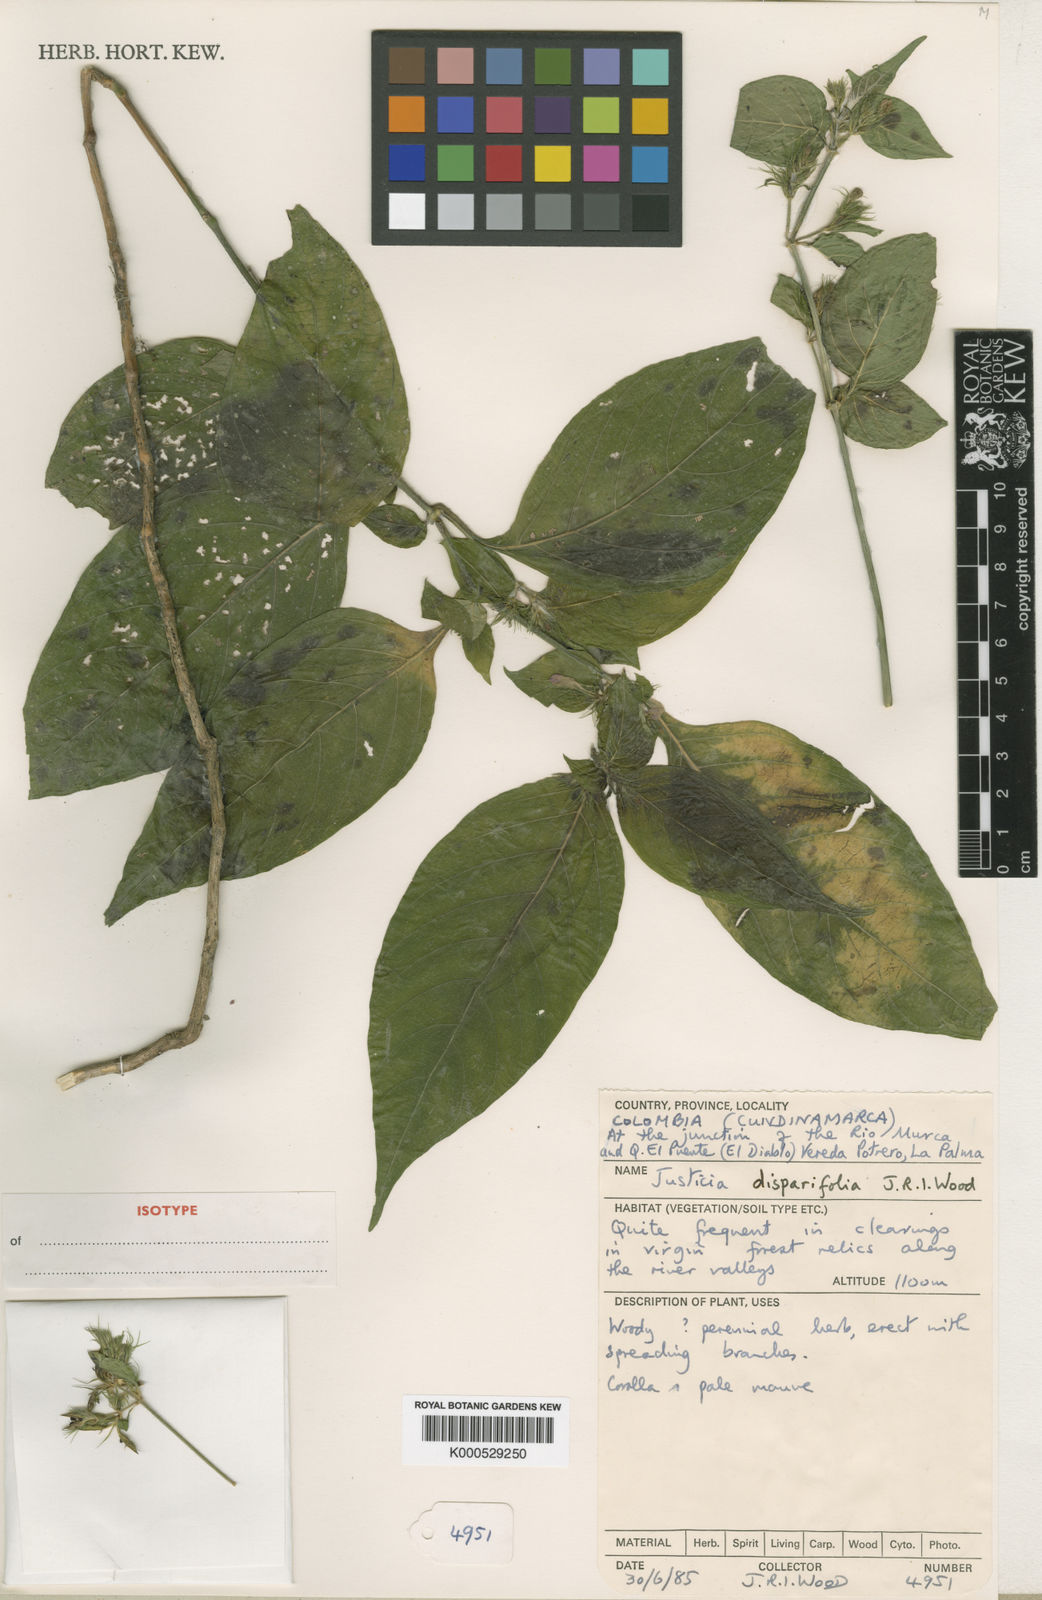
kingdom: Plantae
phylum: Tracheophyta
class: Magnoliopsida
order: Lamiales
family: Acanthaceae
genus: Justicia
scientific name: Justicia magdalenensis
